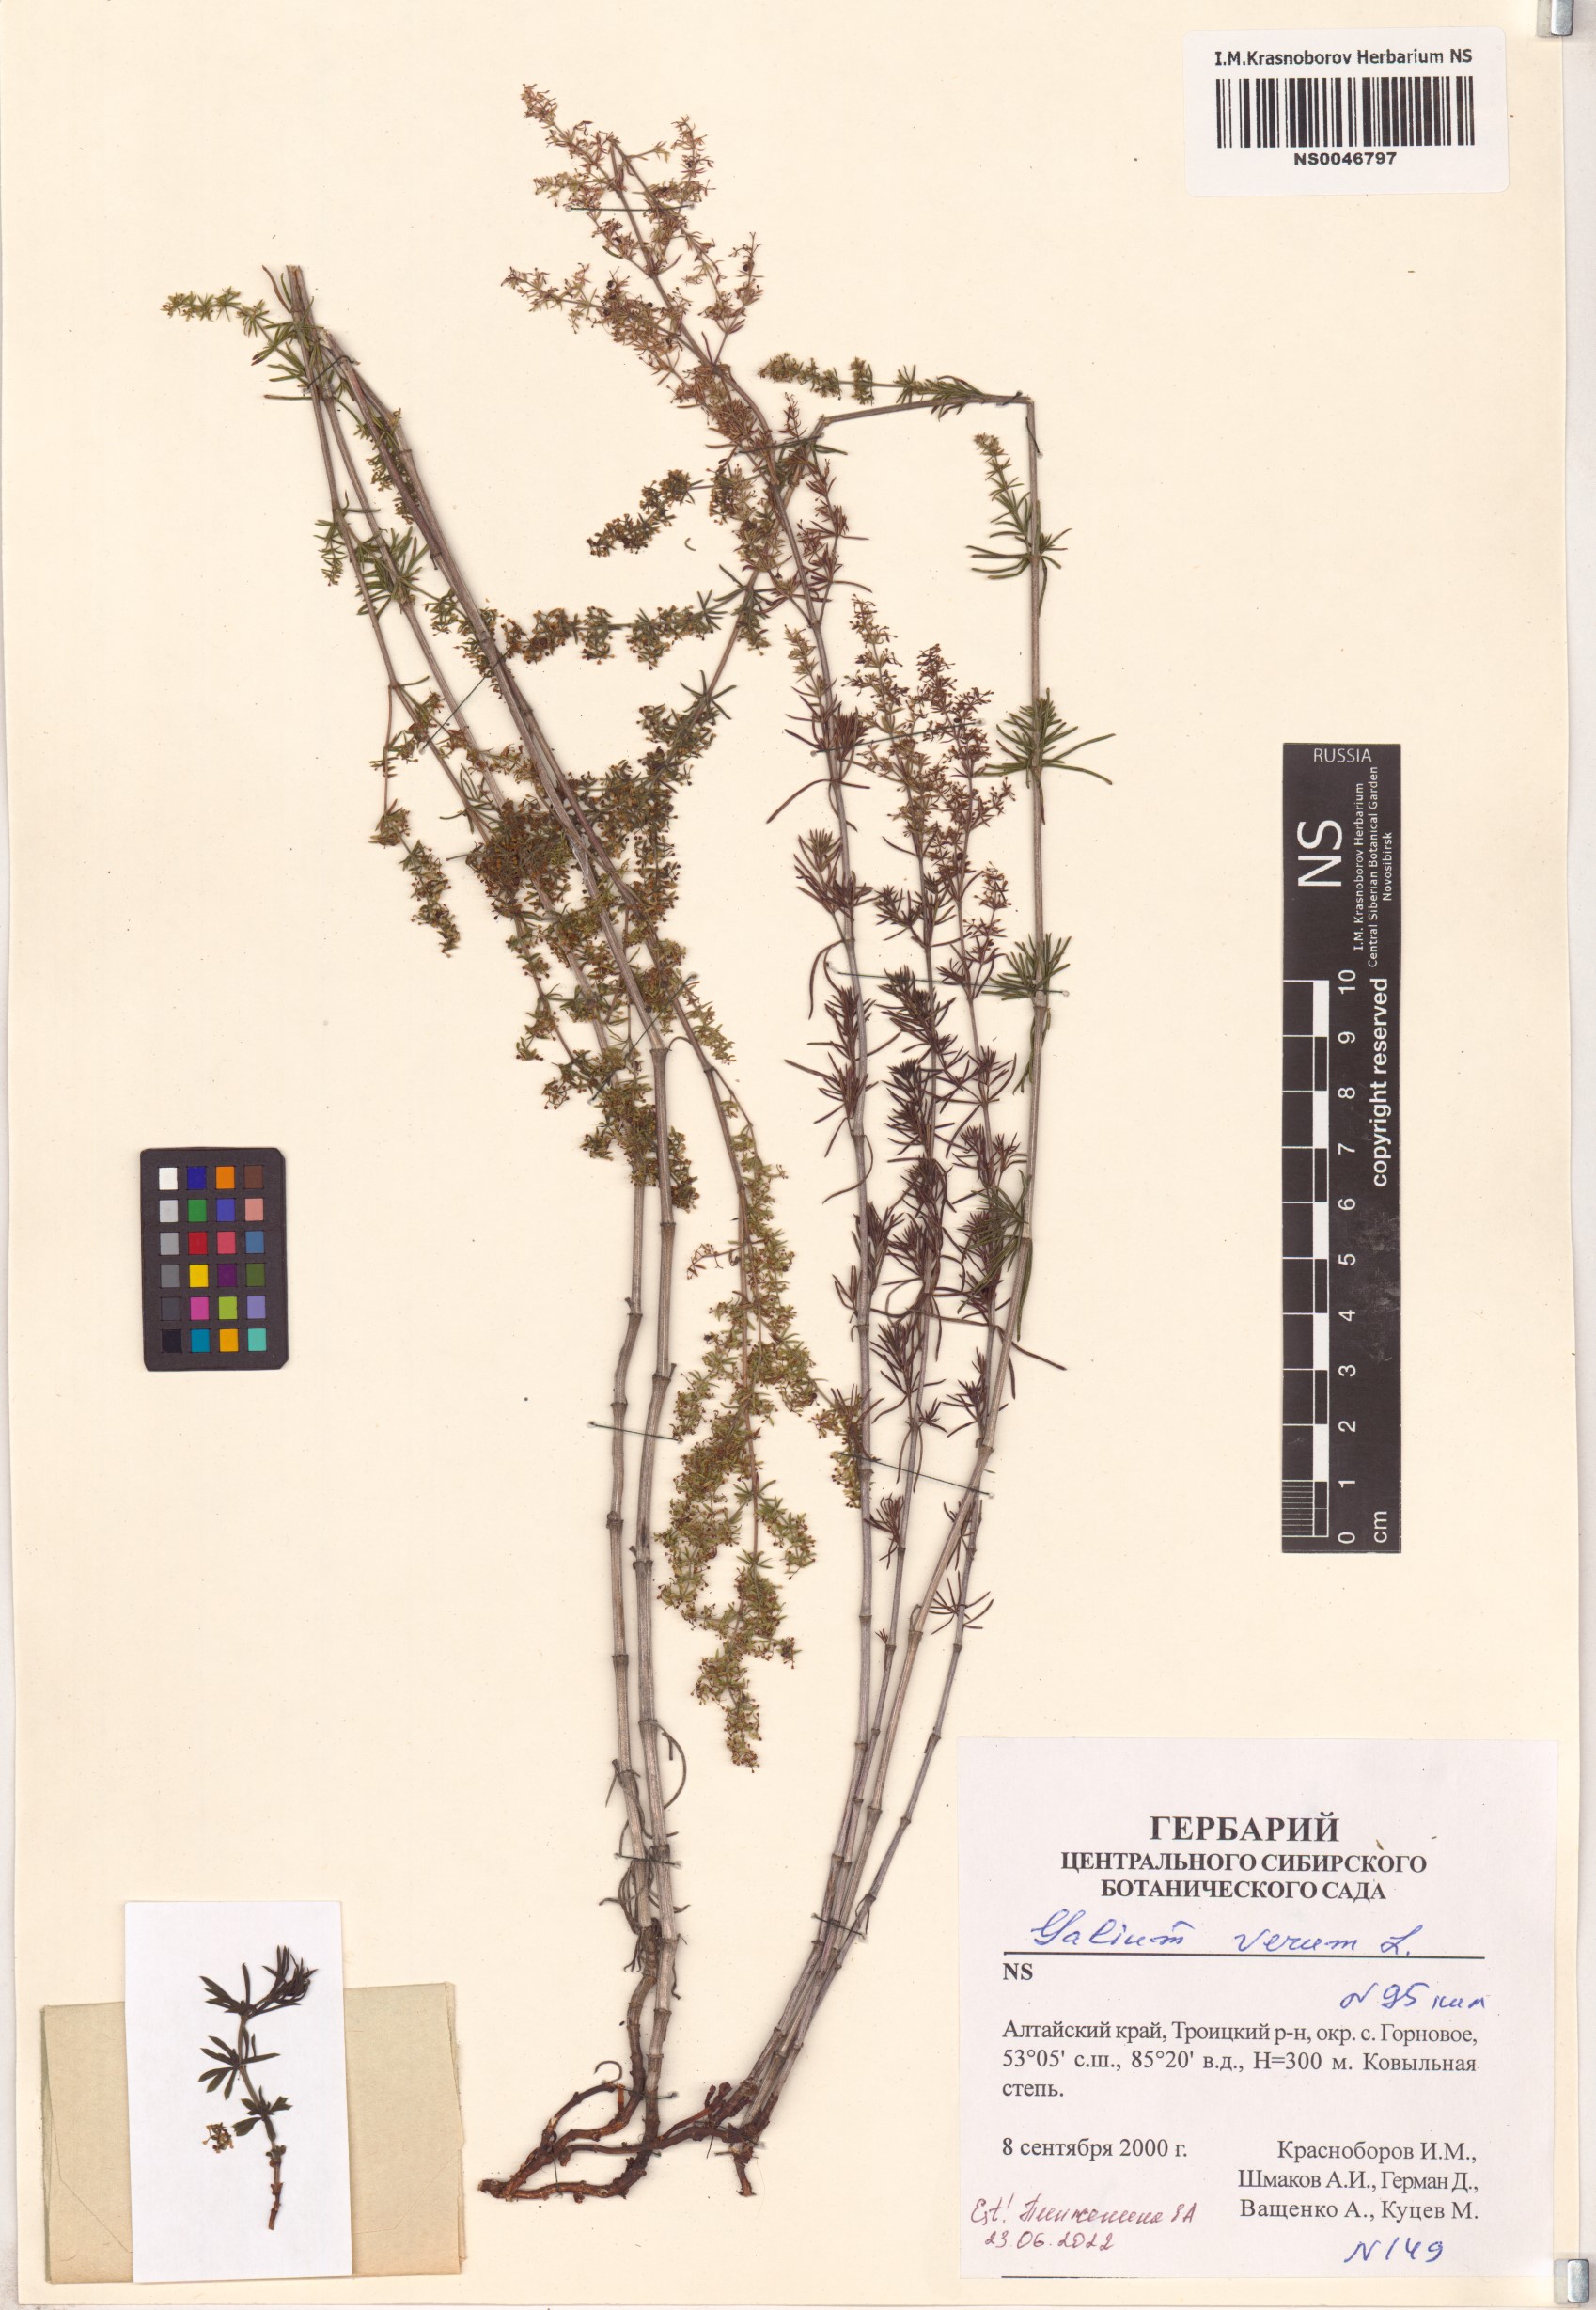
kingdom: Plantae
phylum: Tracheophyta
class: Magnoliopsida
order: Gentianales
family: Rubiaceae
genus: Galium
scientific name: Galium verum
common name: Lady's bedstraw
